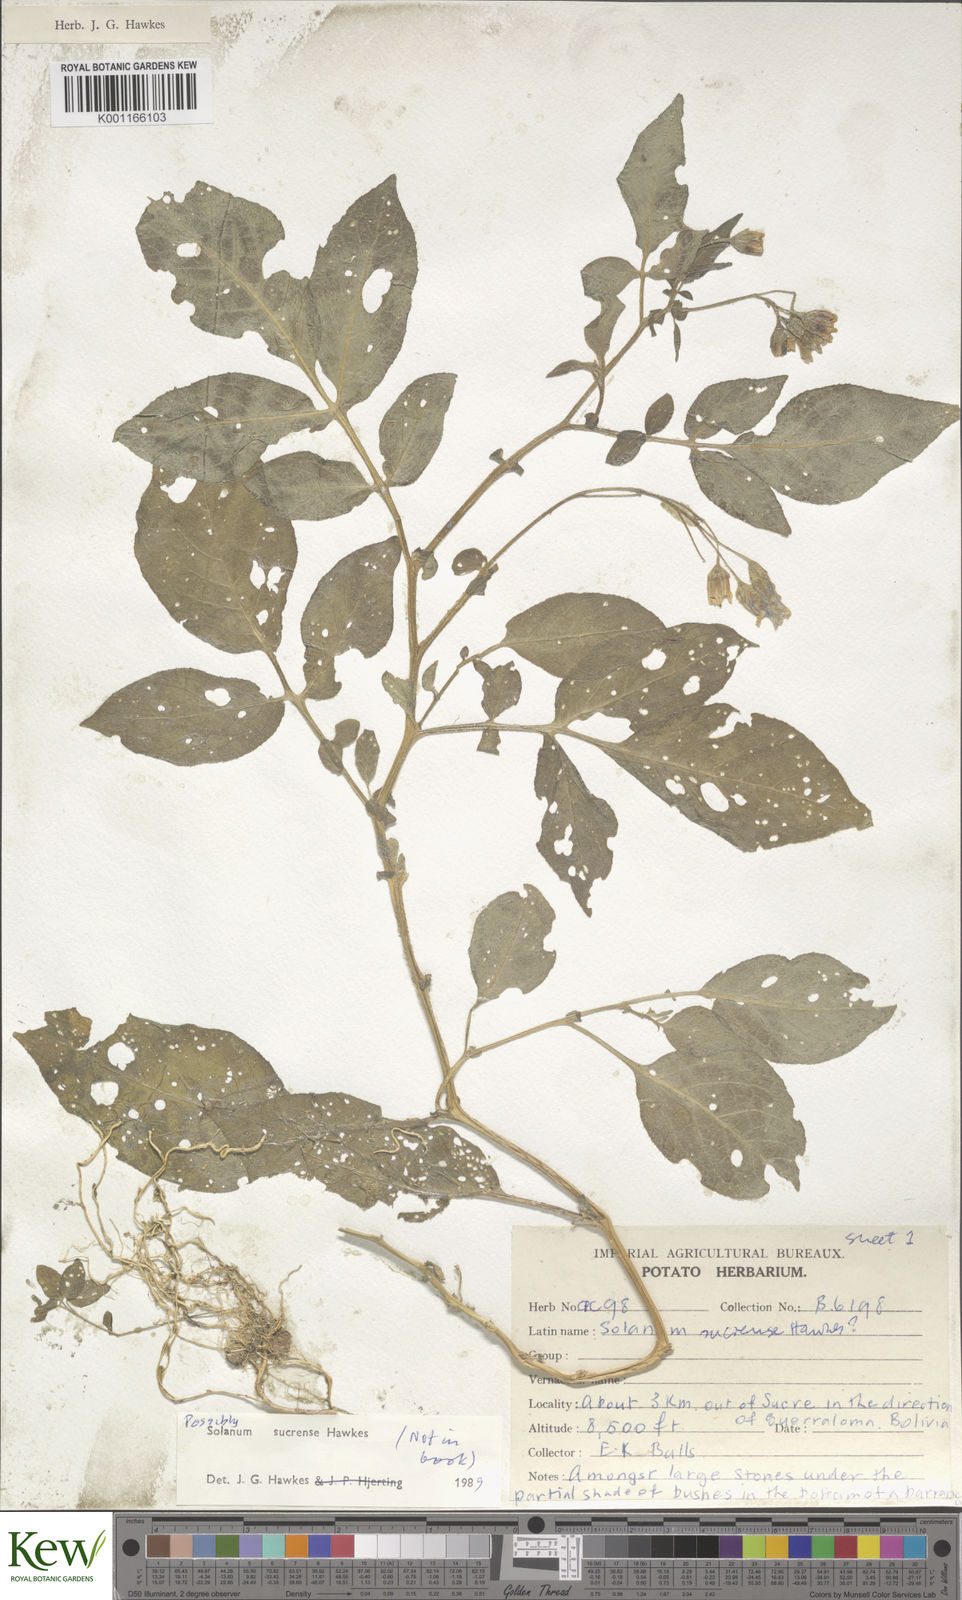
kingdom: Plantae
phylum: Tracheophyta
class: Magnoliopsida
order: Solanales
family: Solanaceae
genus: Solanum
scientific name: Solanum brevicaule
